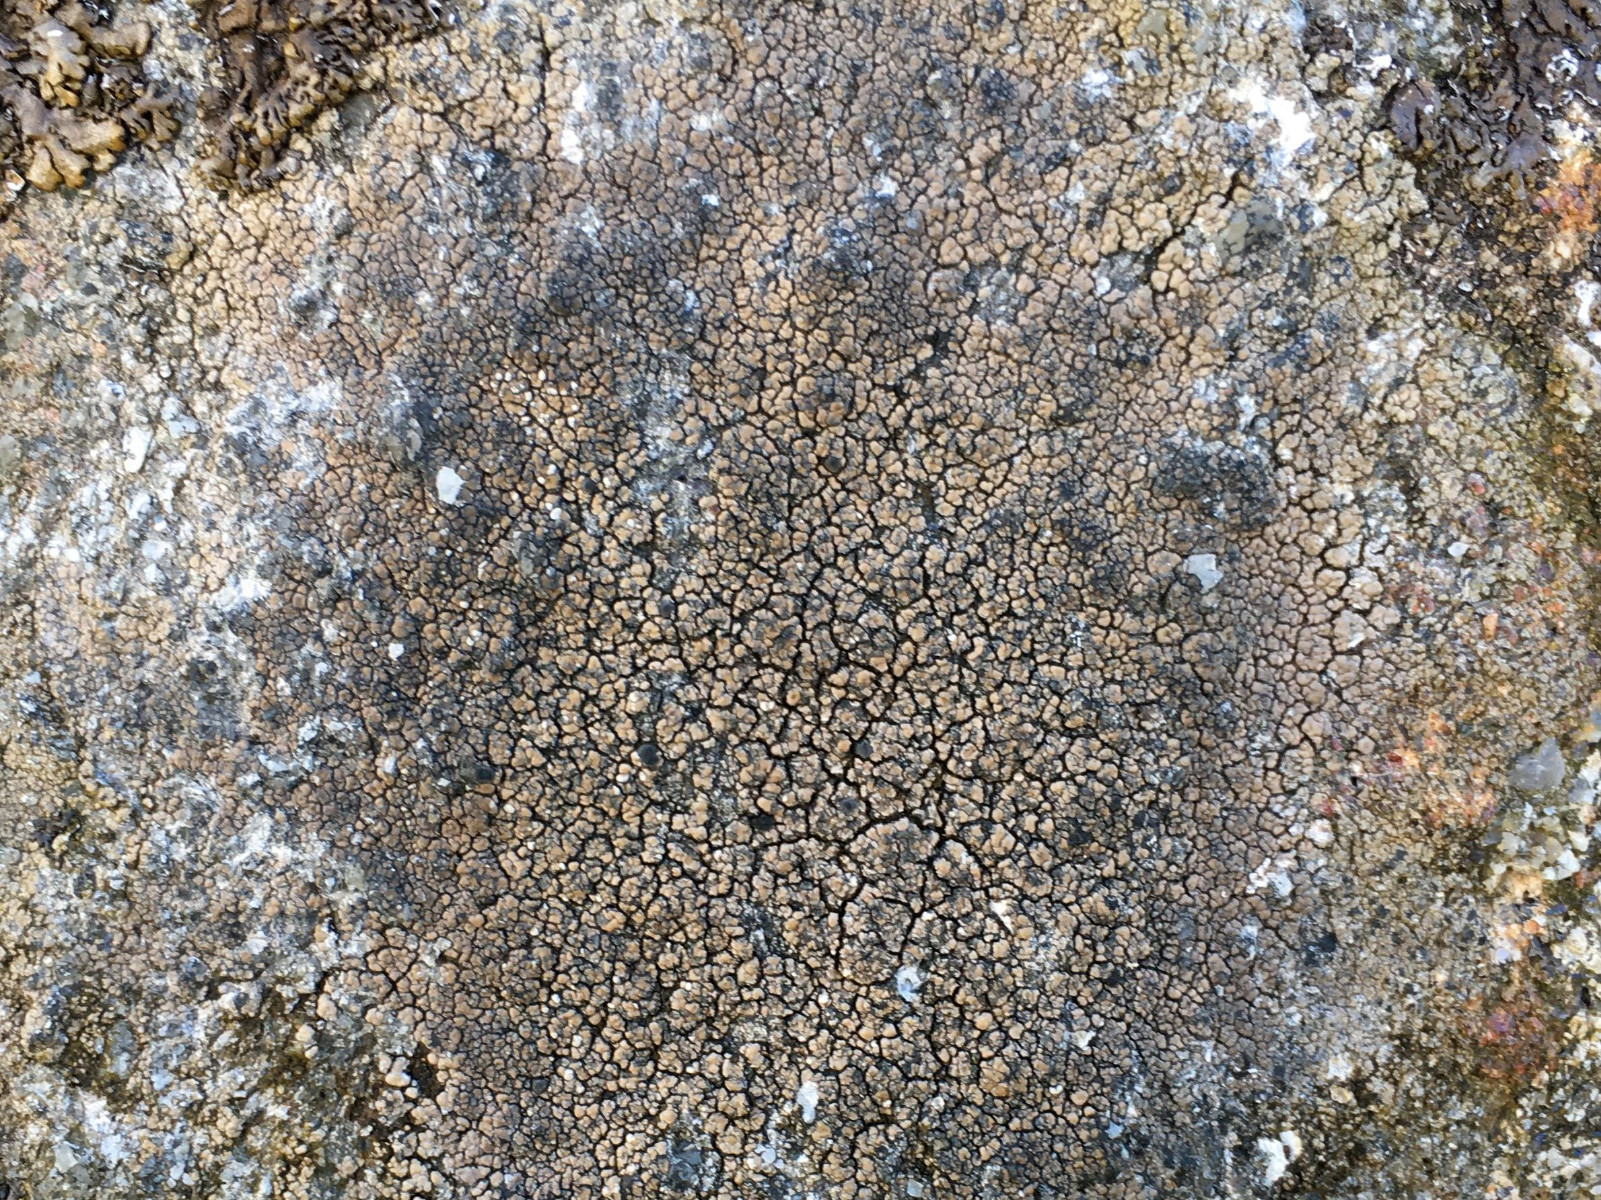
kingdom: Fungi
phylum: Ascomycota
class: Lecanoromycetes
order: Lecideales
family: Lecideaceae
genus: Lecidea
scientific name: Lecidea fuscoatra
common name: rudret skivelav
